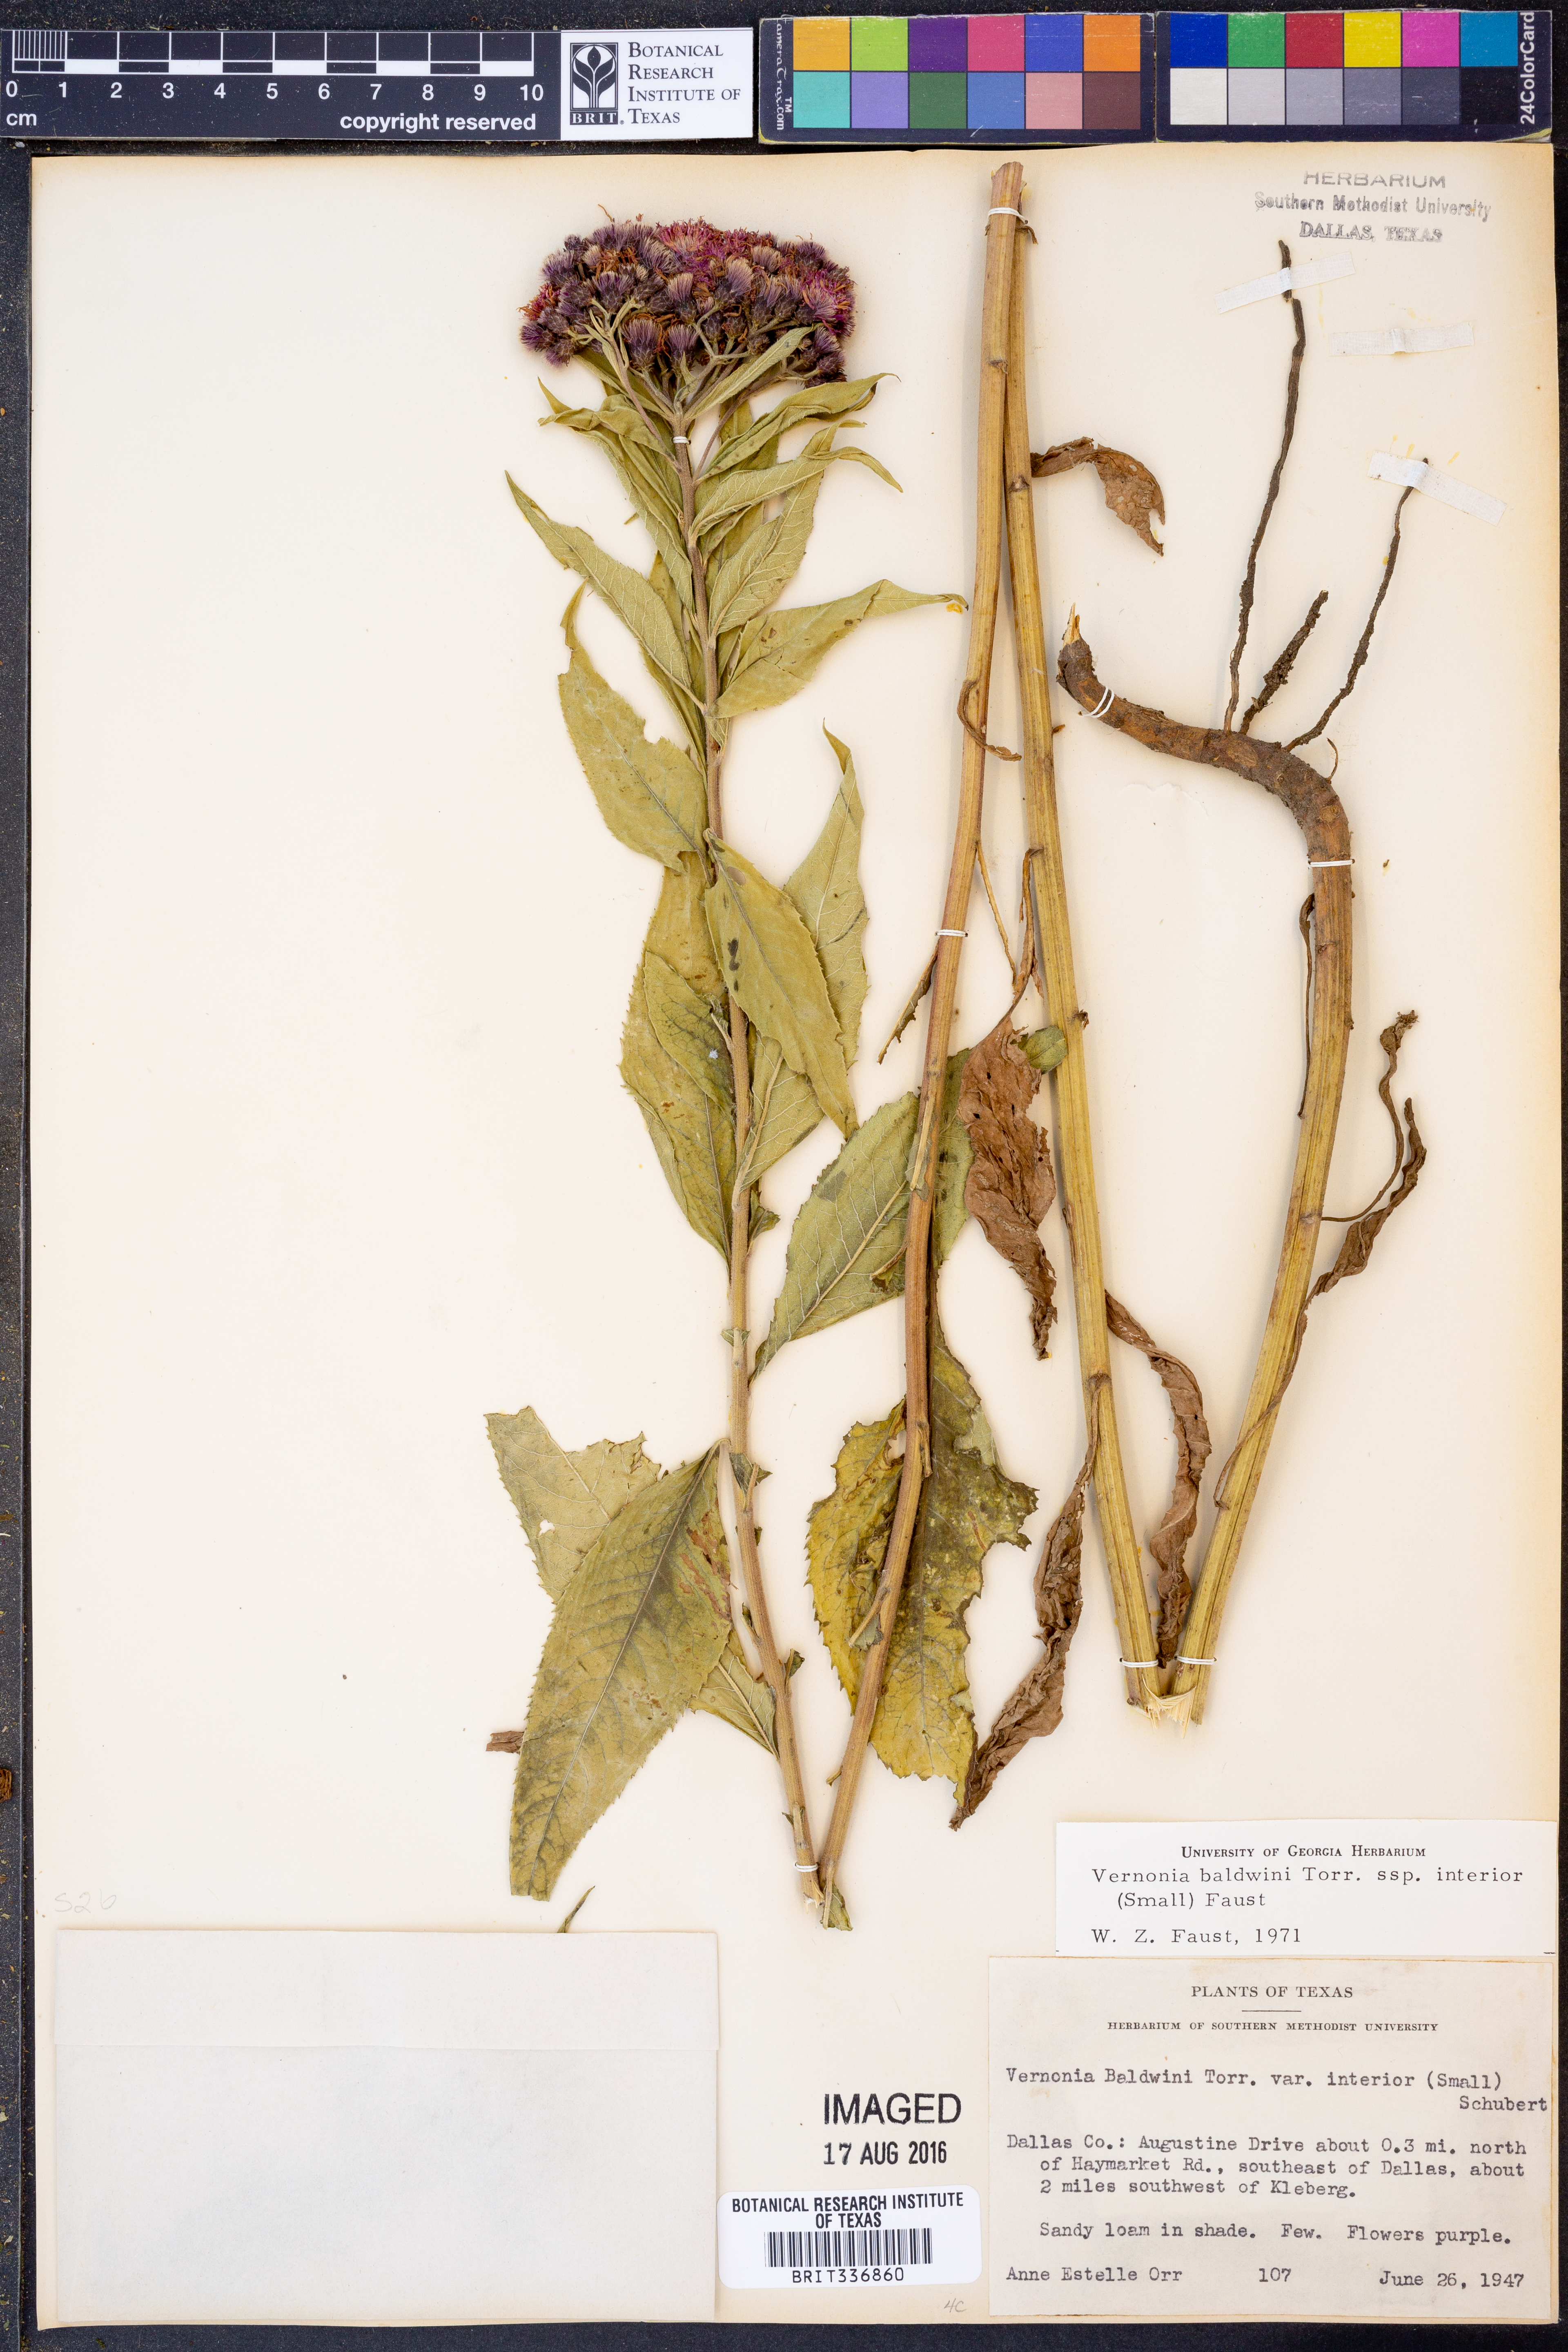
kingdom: Plantae
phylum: Tracheophyta
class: Magnoliopsida
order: Asterales
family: Asteraceae
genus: Vernonia
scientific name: Vernonia baldwinii
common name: Western ironweed
